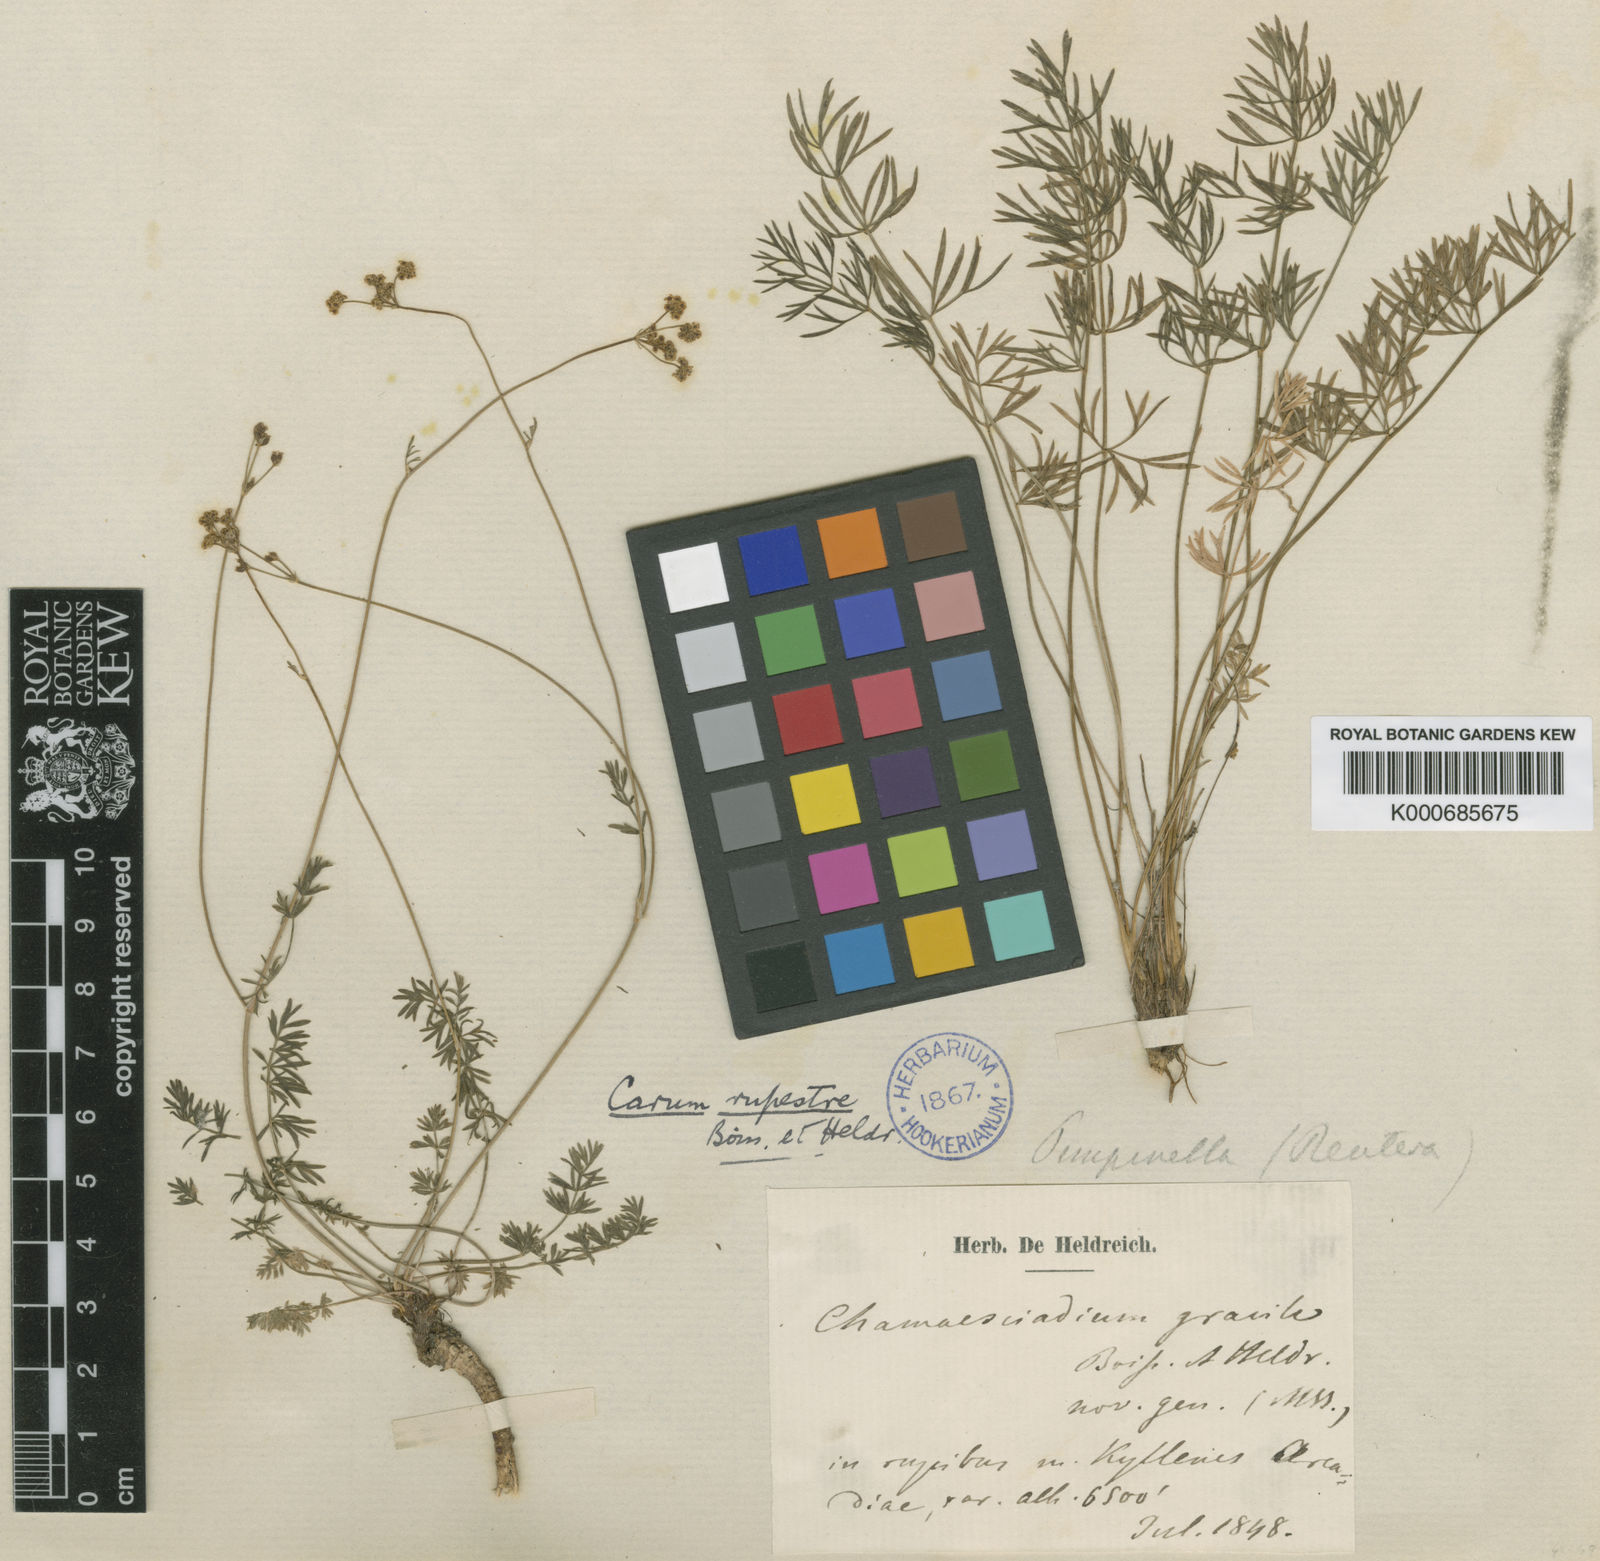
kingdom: Plantae
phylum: Tracheophyta
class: Magnoliopsida
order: Apiales
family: Apiaceae
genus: Carum
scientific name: Carum heldreichii
